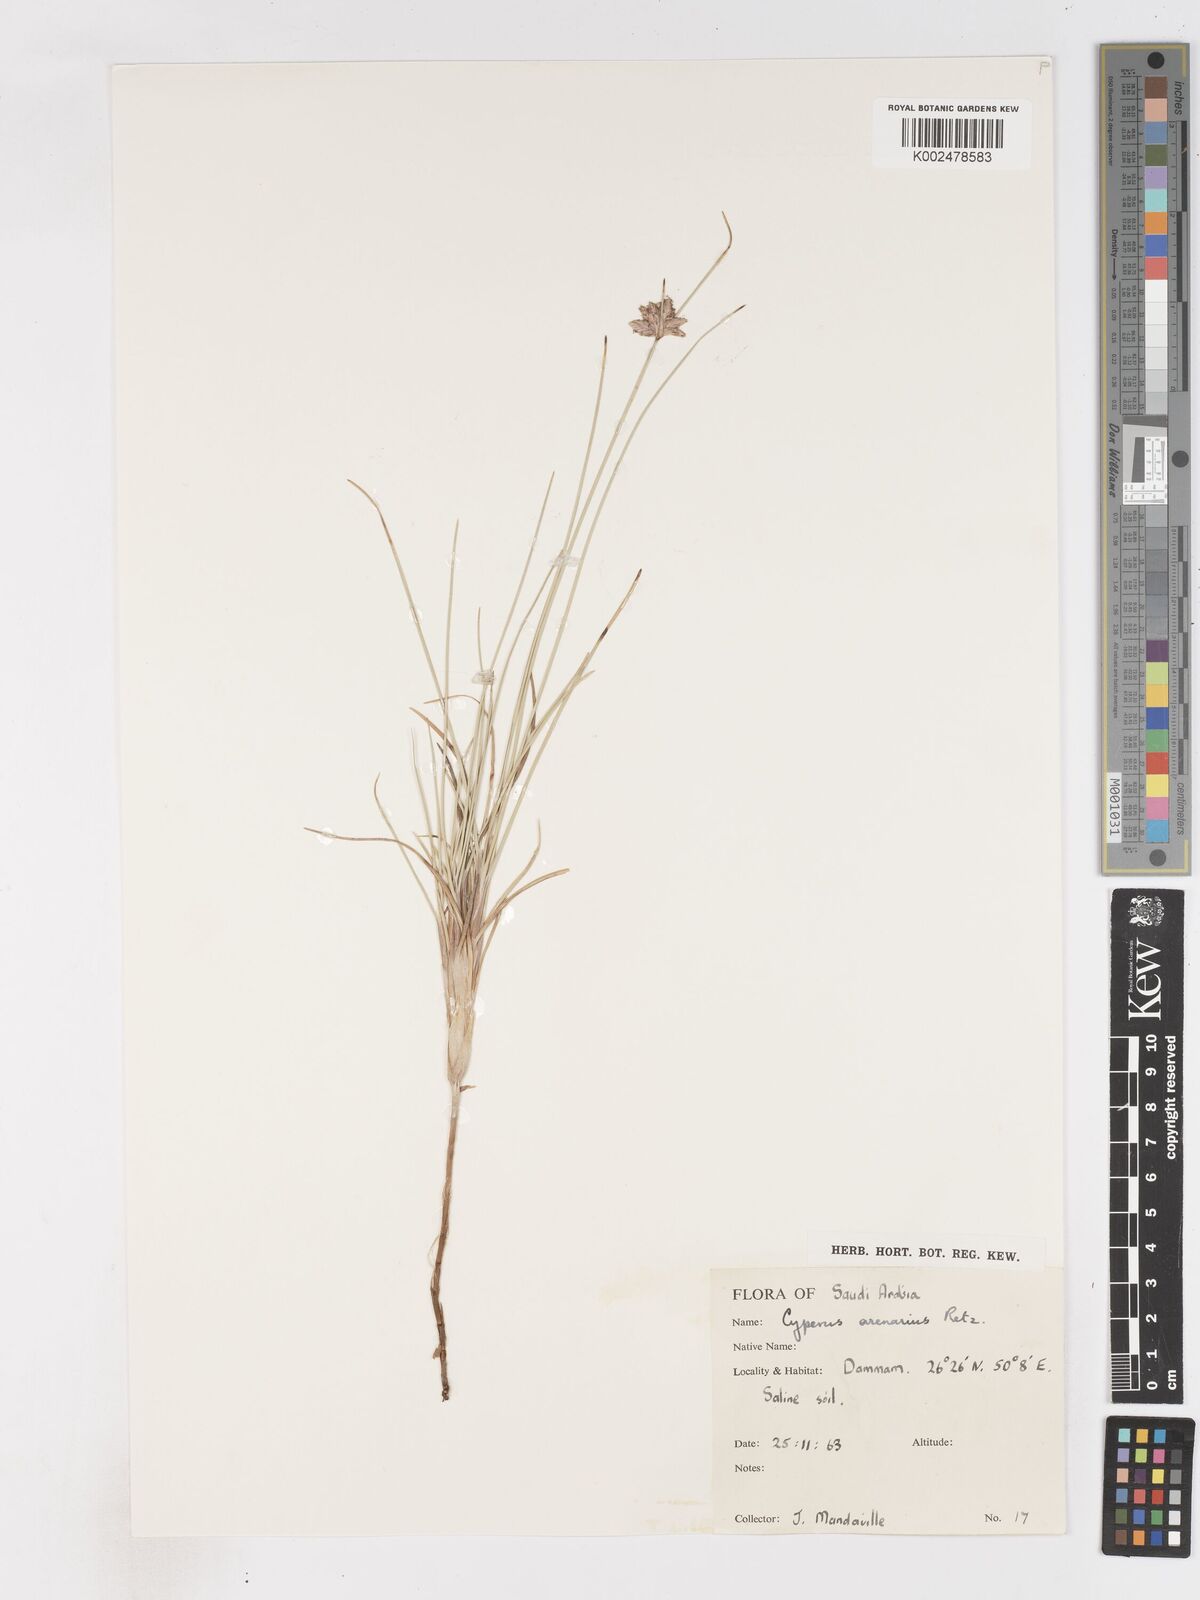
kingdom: Plantae
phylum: Tracheophyta
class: Liliopsida
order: Poales
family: Cyperaceae
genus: Cyperus
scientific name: Cyperus arenarius
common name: Dwarf sedge
